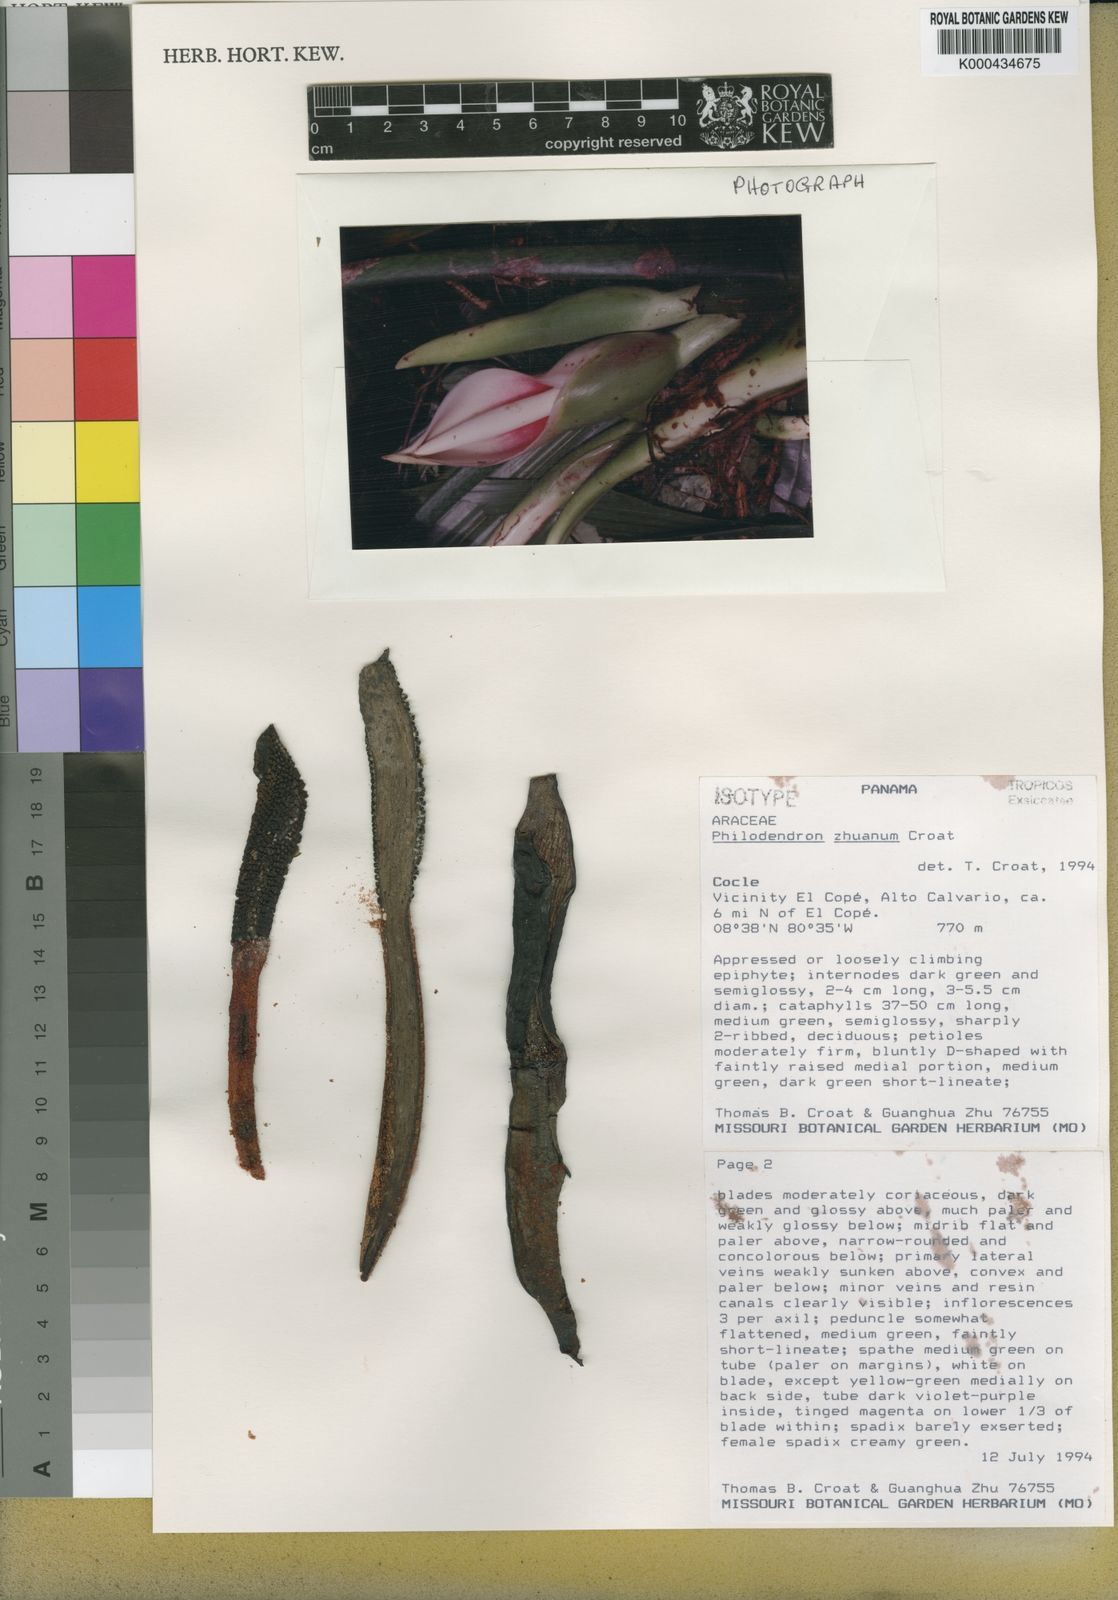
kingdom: Plantae
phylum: Tracheophyta
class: Liliopsida
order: Alismatales
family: Araceae
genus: Philodendron
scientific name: Philodendron zhuanum
